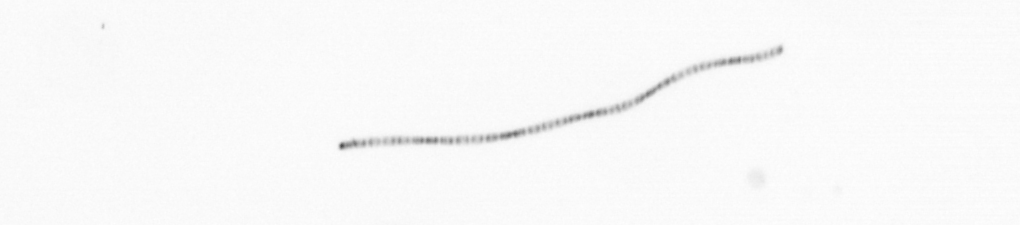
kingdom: Chromista
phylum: Ochrophyta
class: Bacillariophyceae
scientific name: Bacillariophyceae
